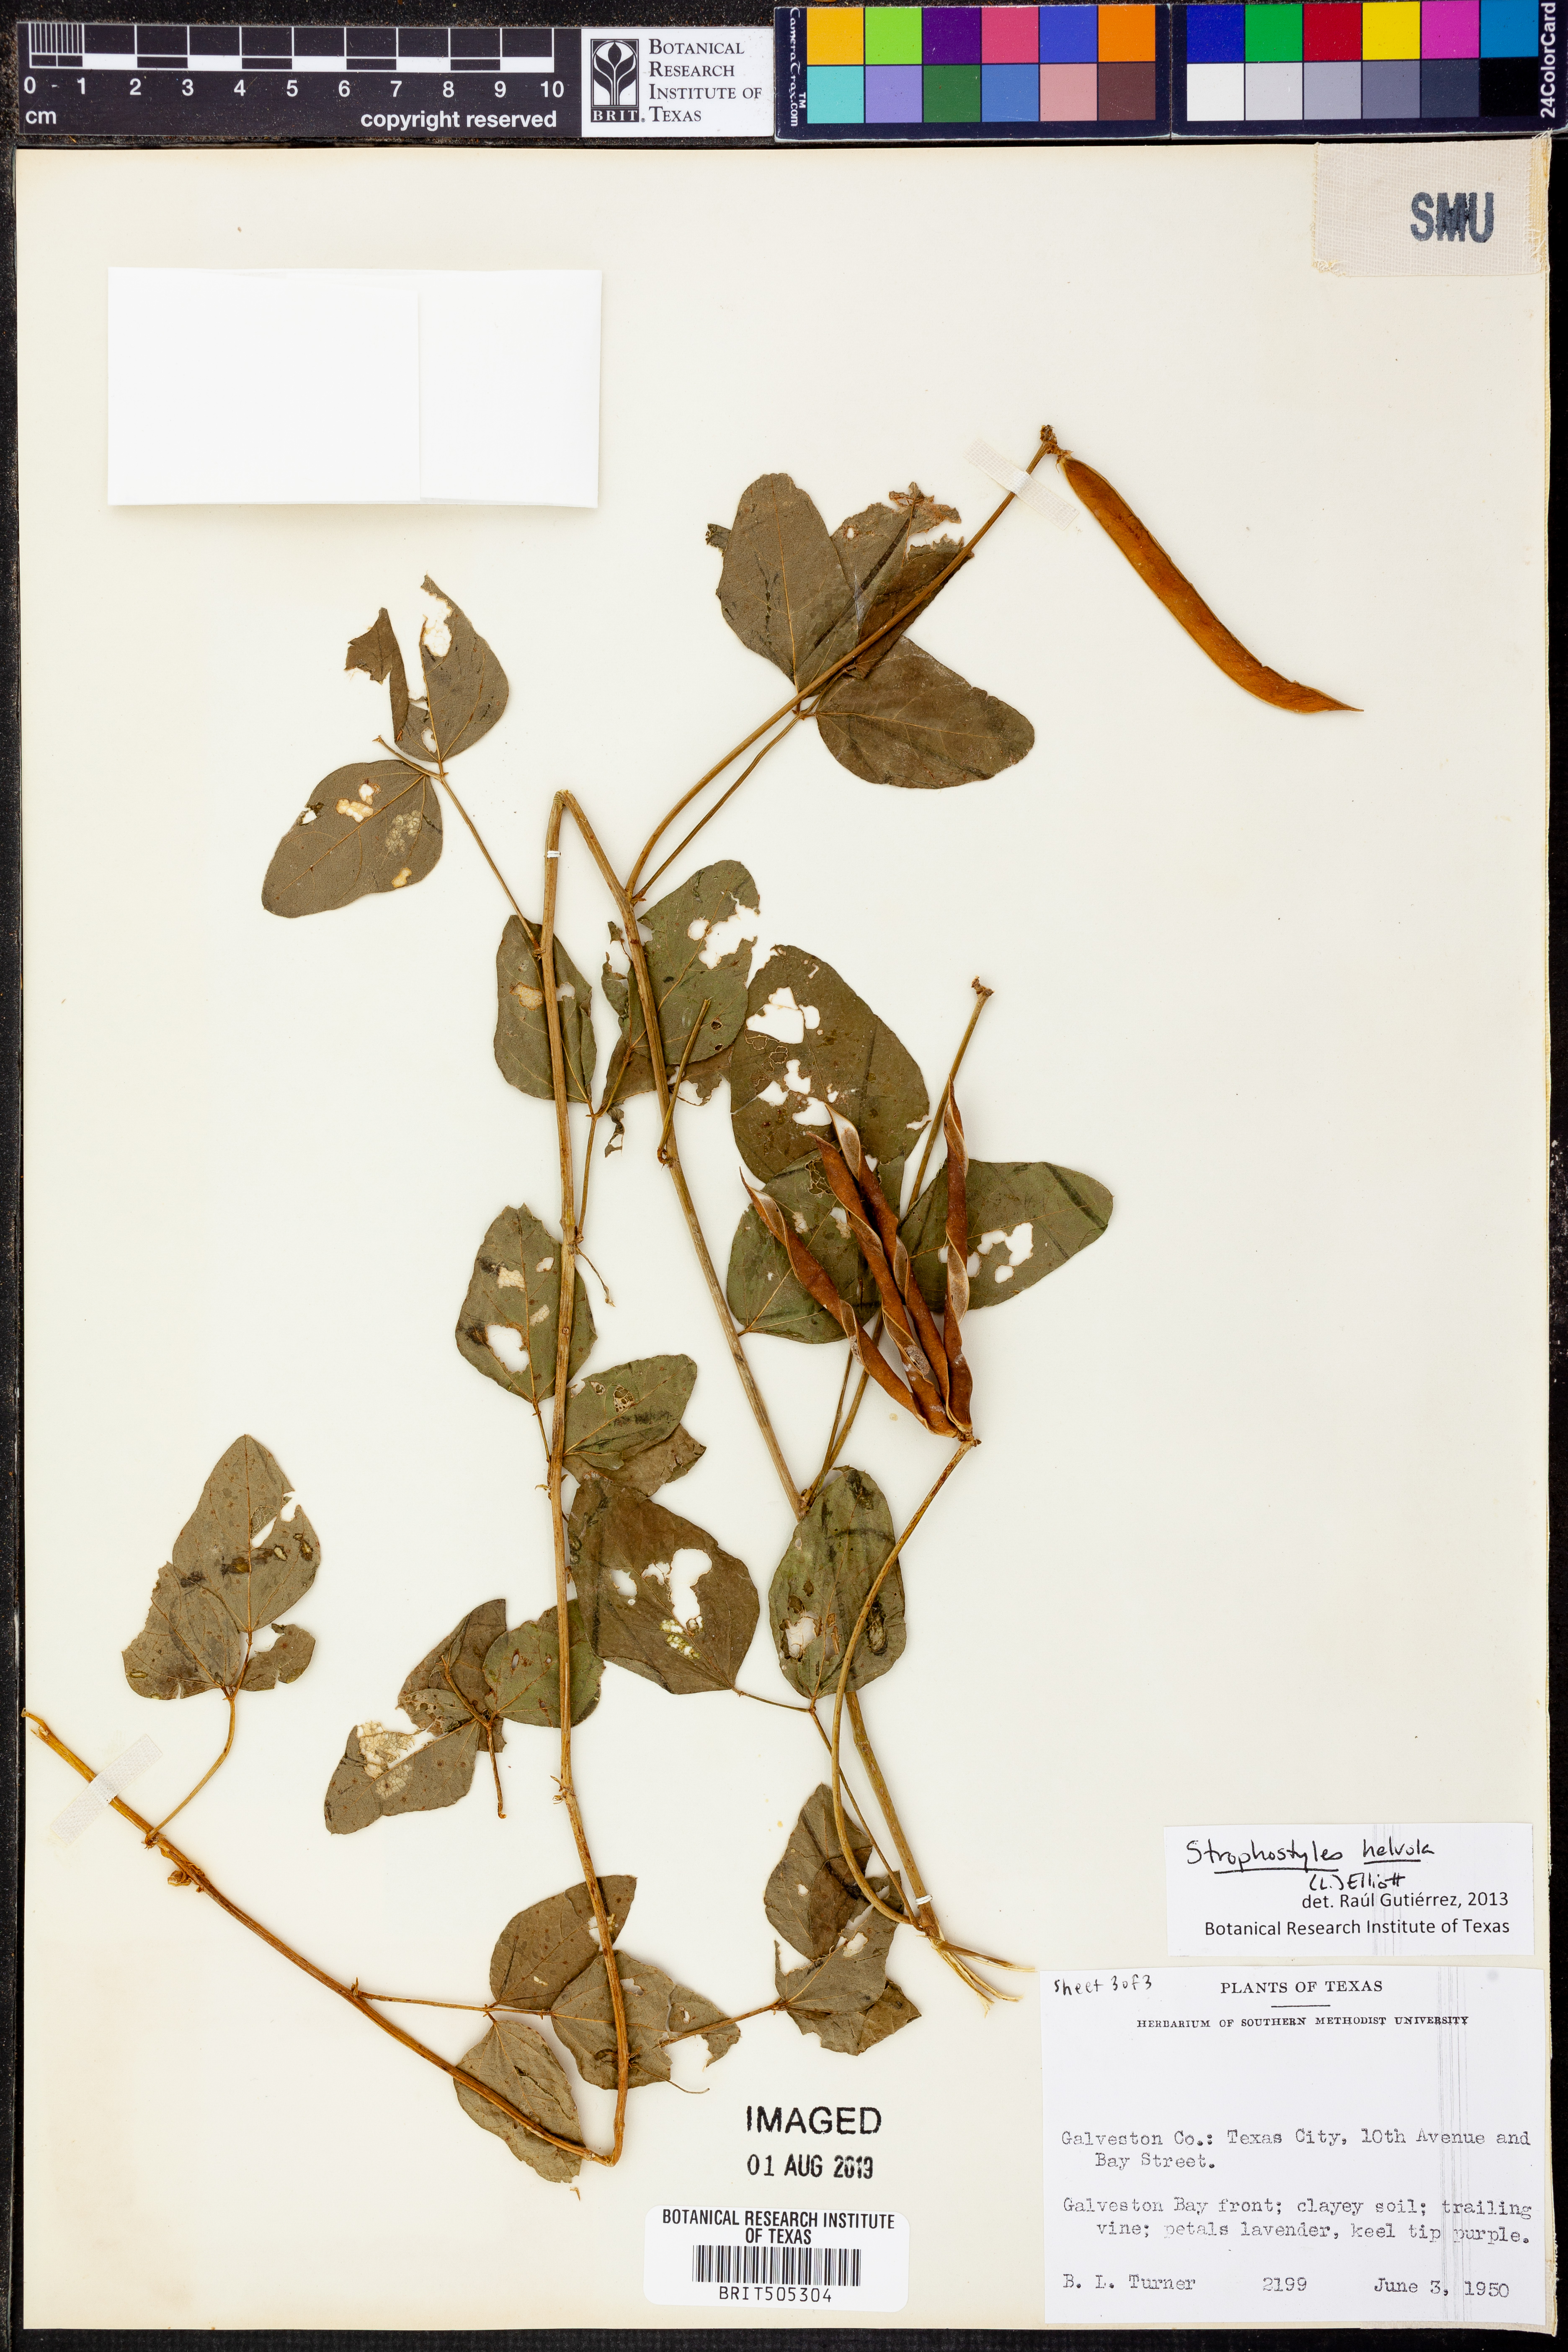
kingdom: Plantae
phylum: Tracheophyta
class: Magnoliopsida
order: Fabales
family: Fabaceae
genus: Strophostyles
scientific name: Strophostyles helvola
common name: Trailing wild bean
